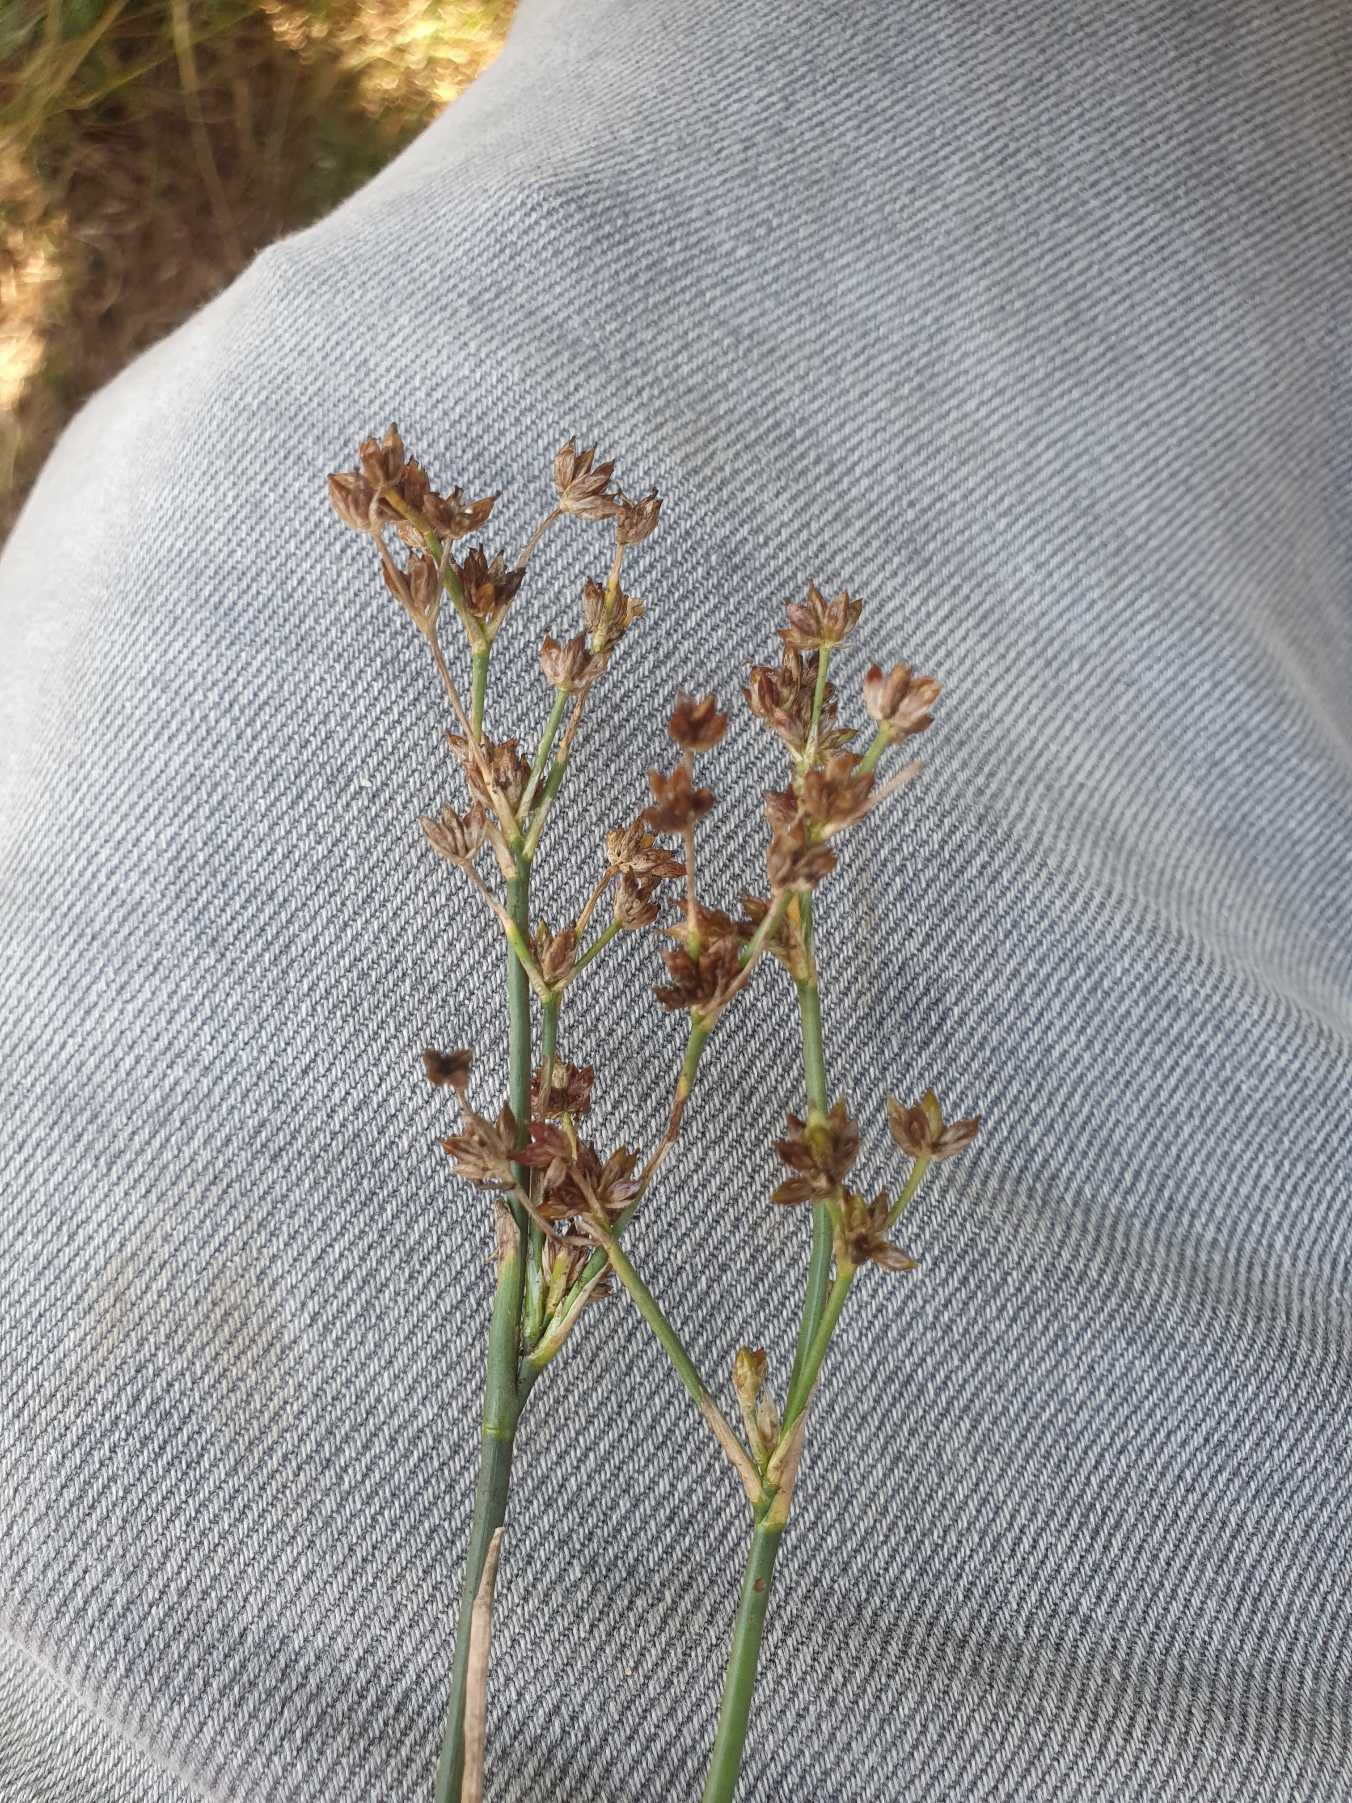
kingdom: Plantae
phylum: Tracheophyta
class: Liliopsida
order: Poales
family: Juncaceae
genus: Juncus
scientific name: Juncus articulatus
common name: Glanskapslet siv
